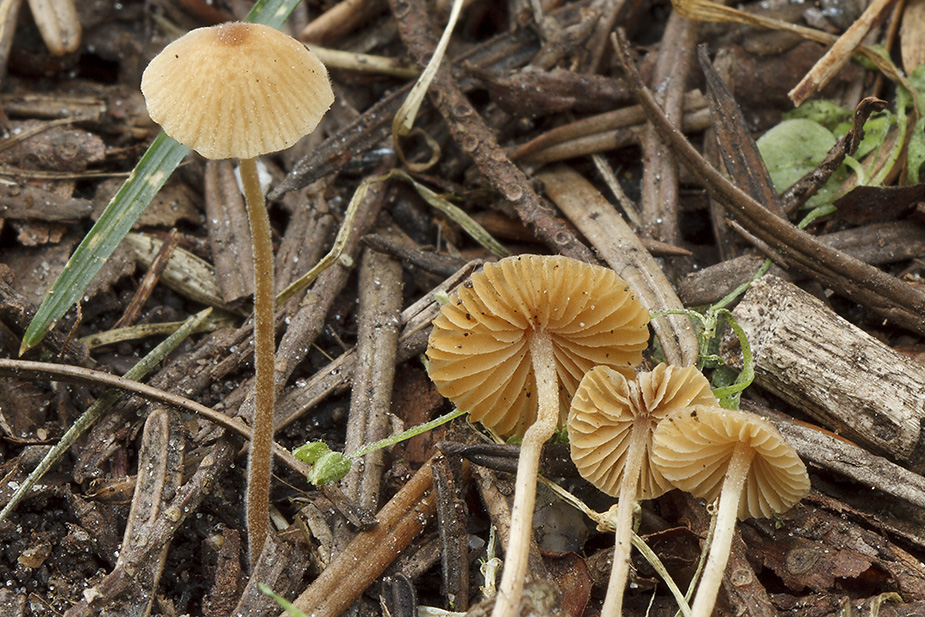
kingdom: Fungi
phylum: Basidiomycota
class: Agaricomycetes
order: Agaricales
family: Bolbitiaceae
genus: Conocybe
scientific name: Conocybe rostellata
